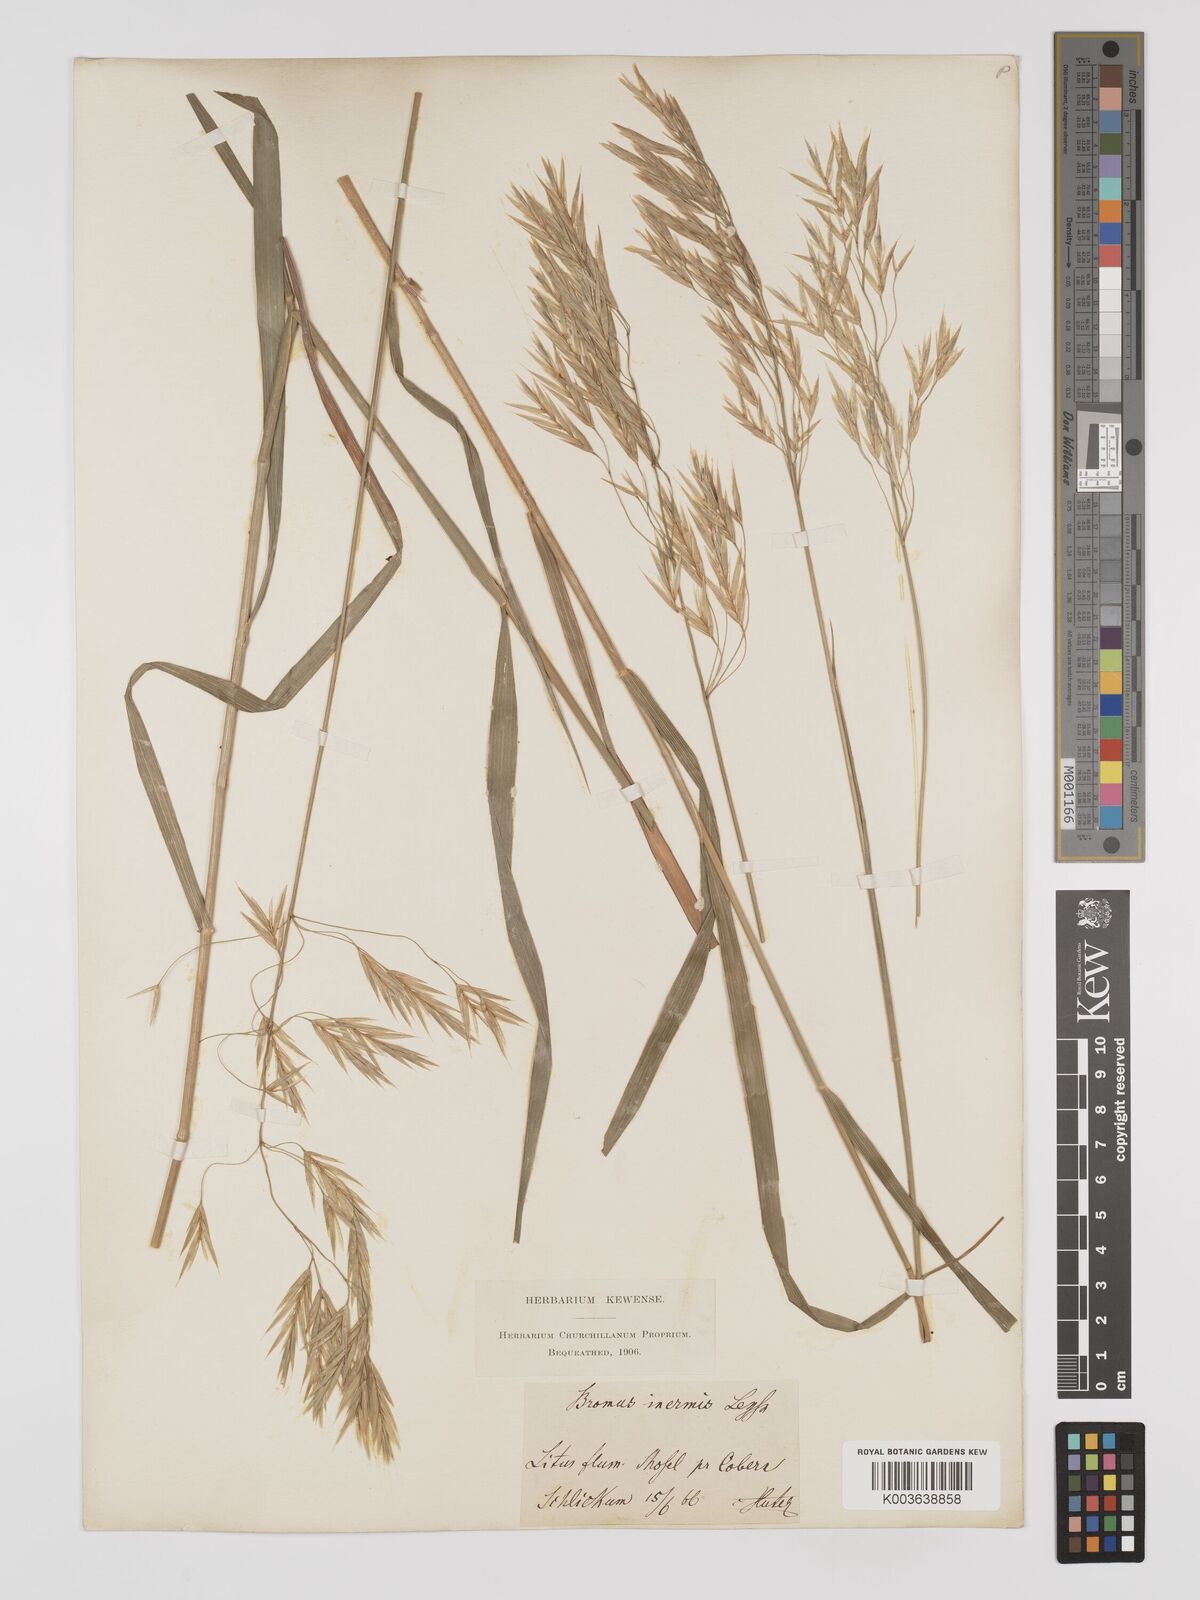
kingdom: Plantae
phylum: Tracheophyta
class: Liliopsida
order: Poales
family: Poaceae
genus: Bromus
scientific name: Bromus inermis
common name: Smooth brome
